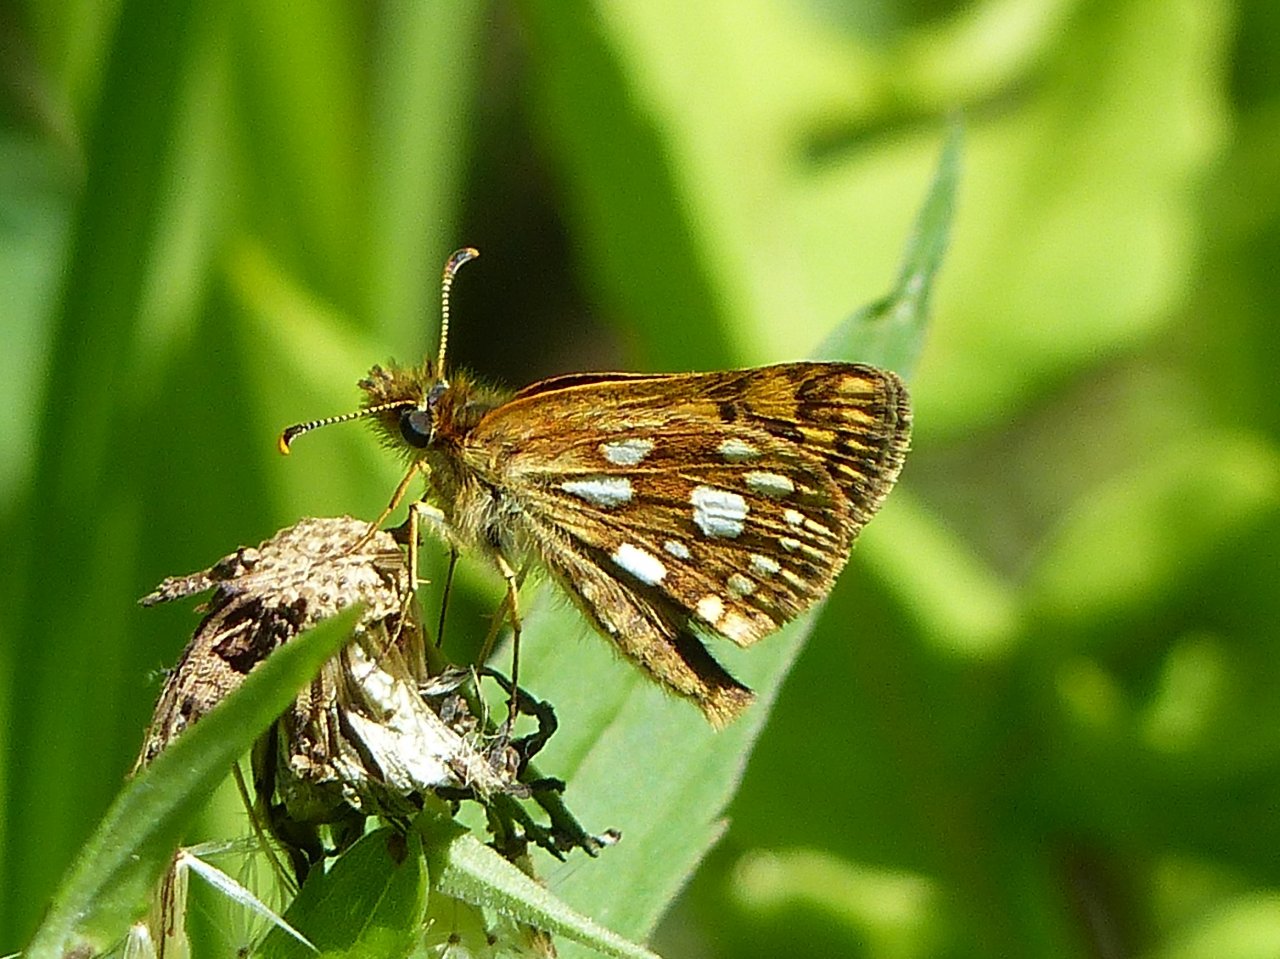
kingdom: Animalia
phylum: Arthropoda
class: Insecta
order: Lepidoptera
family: Hesperiidae
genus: Carterocephalus
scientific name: Carterocephalus palaemon
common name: Chequered Skipper
